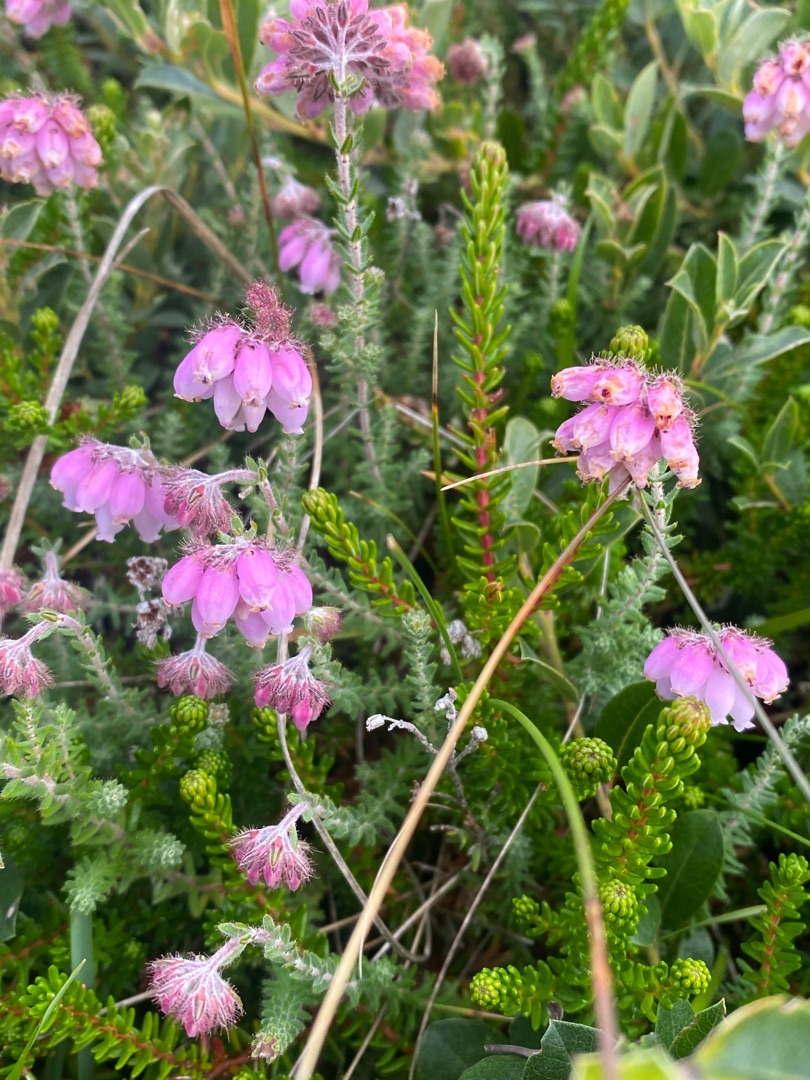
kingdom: Plantae
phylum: Tracheophyta
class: Magnoliopsida
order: Ericales
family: Ericaceae
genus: Erica
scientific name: Erica tetralix
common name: Klokkelyng
